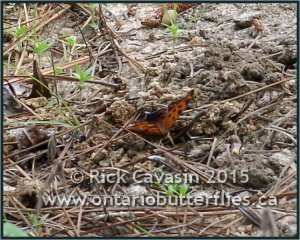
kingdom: Animalia
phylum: Arthropoda
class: Insecta
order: Lepidoptera
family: Nymphalidae
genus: Polygonia
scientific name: Polygonia interrogationis
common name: Question Mark
